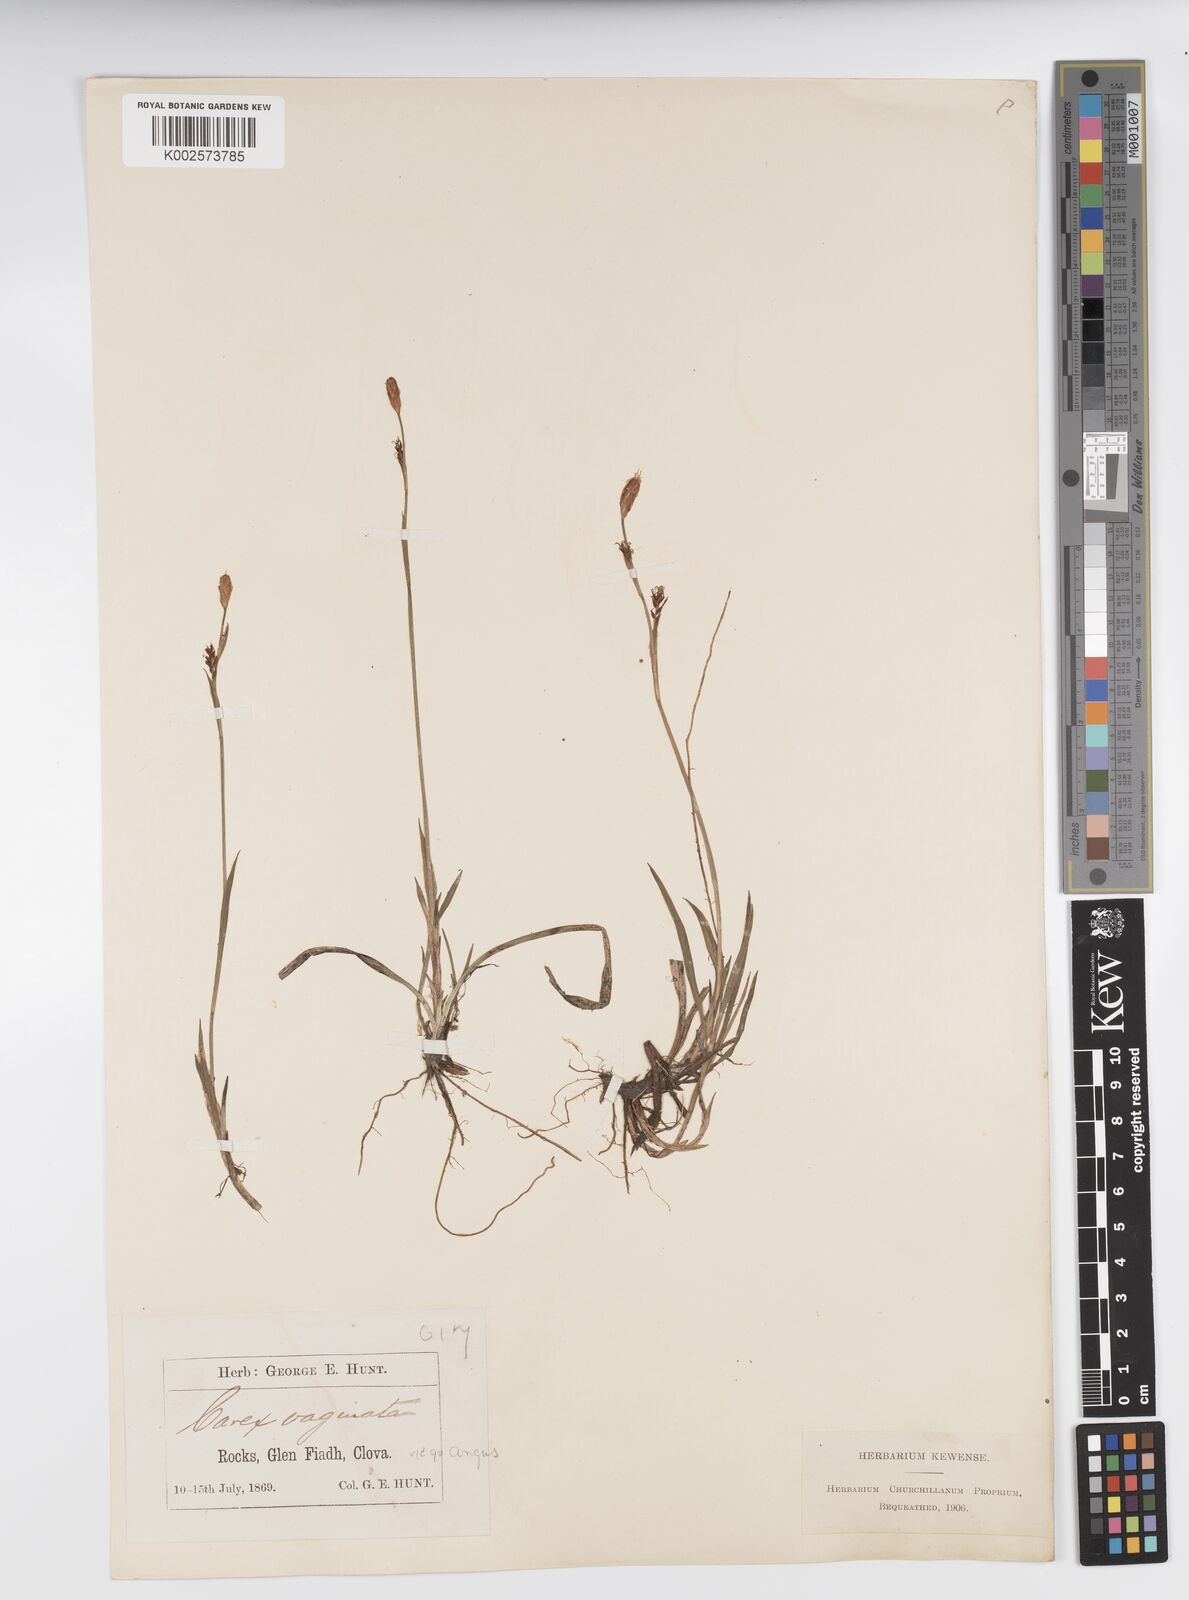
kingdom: Plantae
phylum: Tracheophyta
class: Liliopsida
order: Poales
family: Cyperaceae
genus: Carex
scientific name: Carex vaginata
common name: Sheathed sedge
